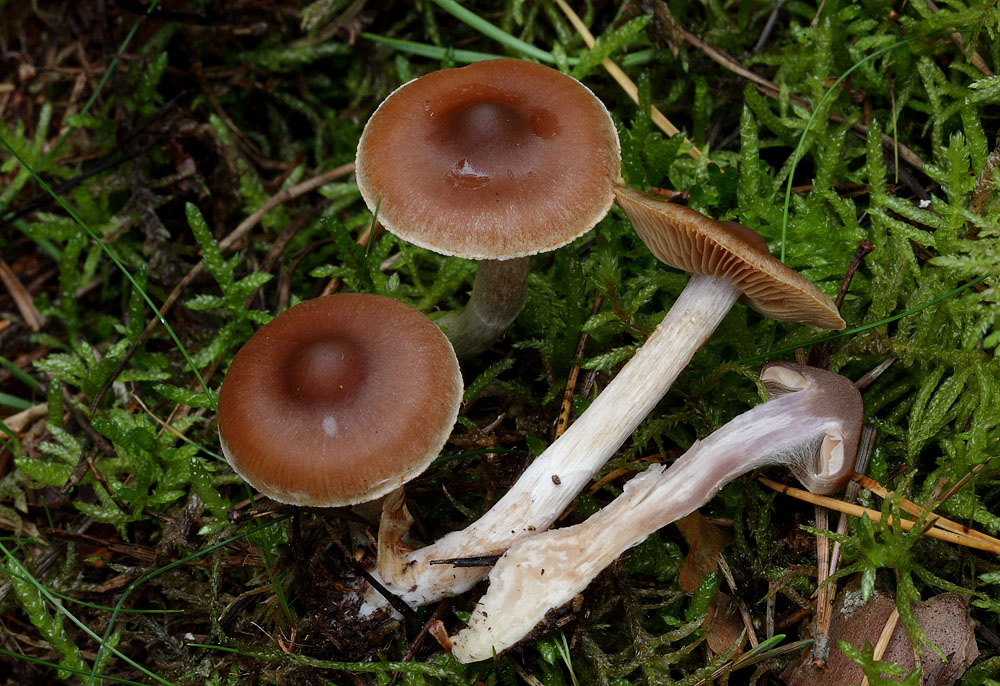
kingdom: Fungi
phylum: Basidiomycota
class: Agaricomycetes
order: Agaricales
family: Cortinariaceae
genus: Cortinarius
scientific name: Cortinarius kauffmanianus
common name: plantage-slørhat
